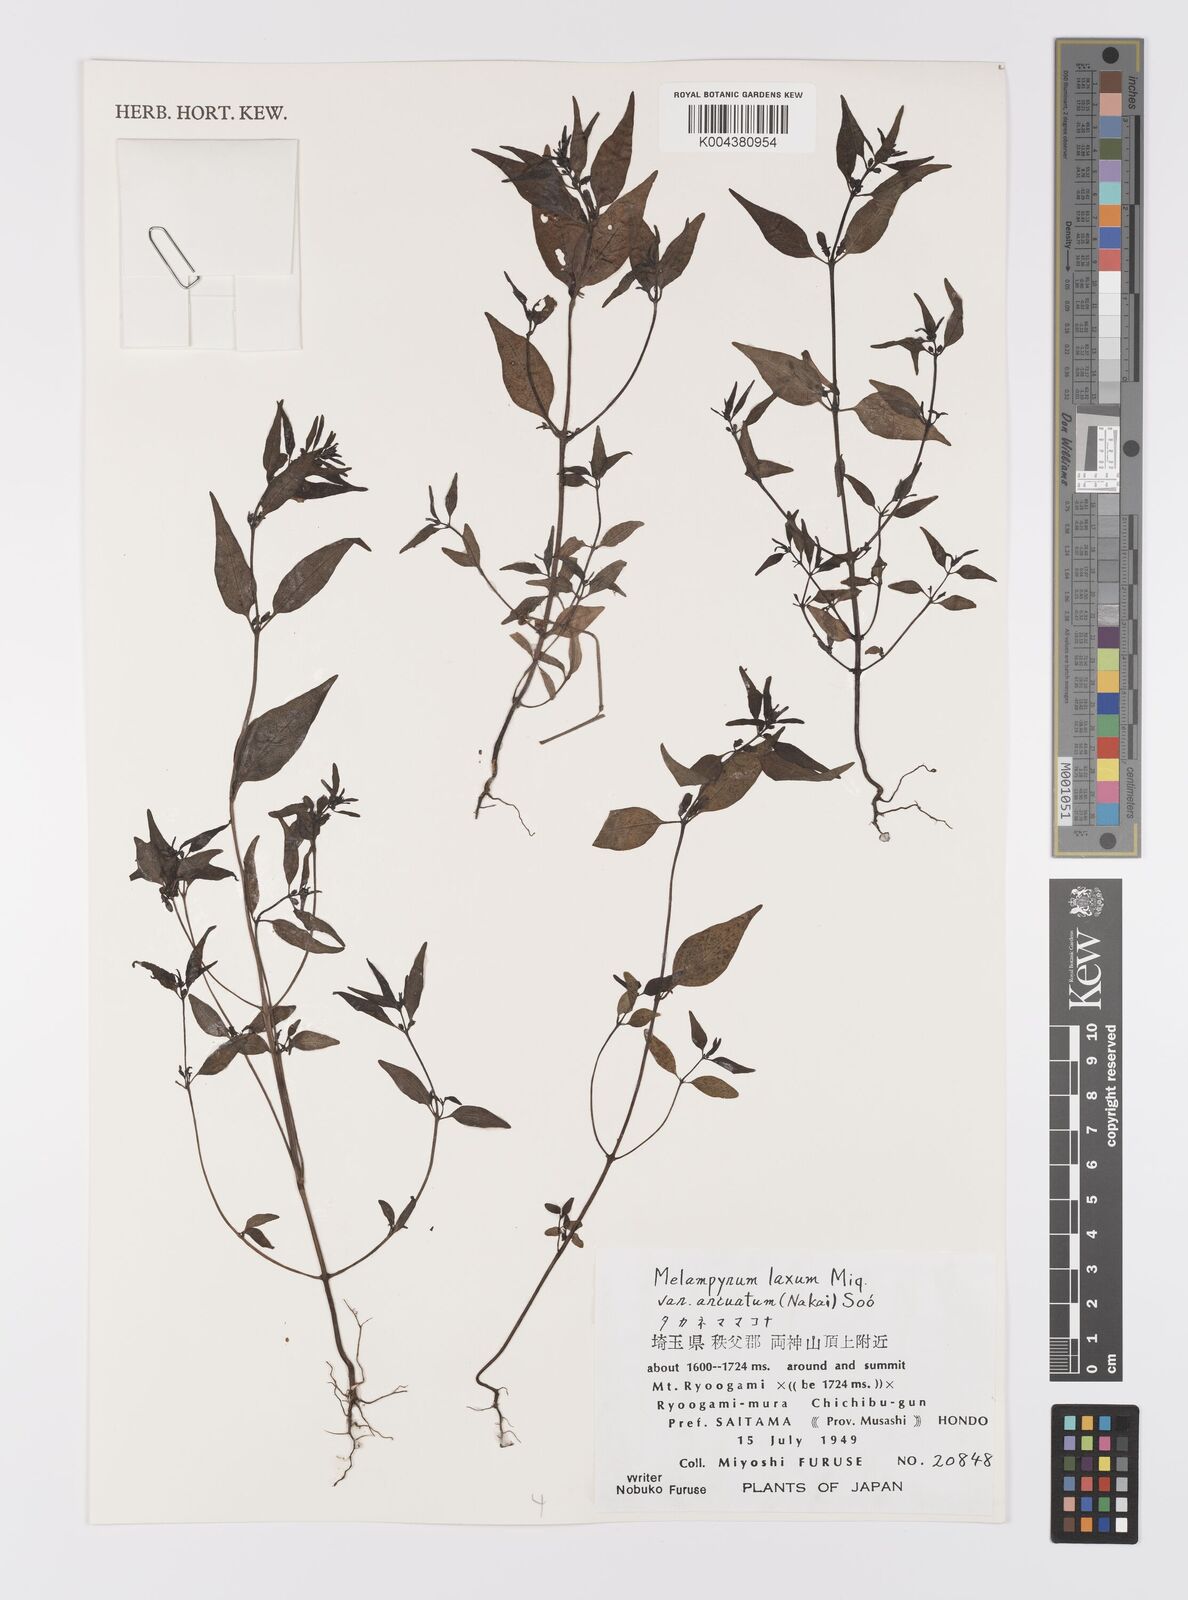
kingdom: Plantae
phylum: Tracheophyta
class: Magnoliopsida
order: Lamiales
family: Orobanchaceae
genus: Melampyrum
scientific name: Melampyrum laxum
